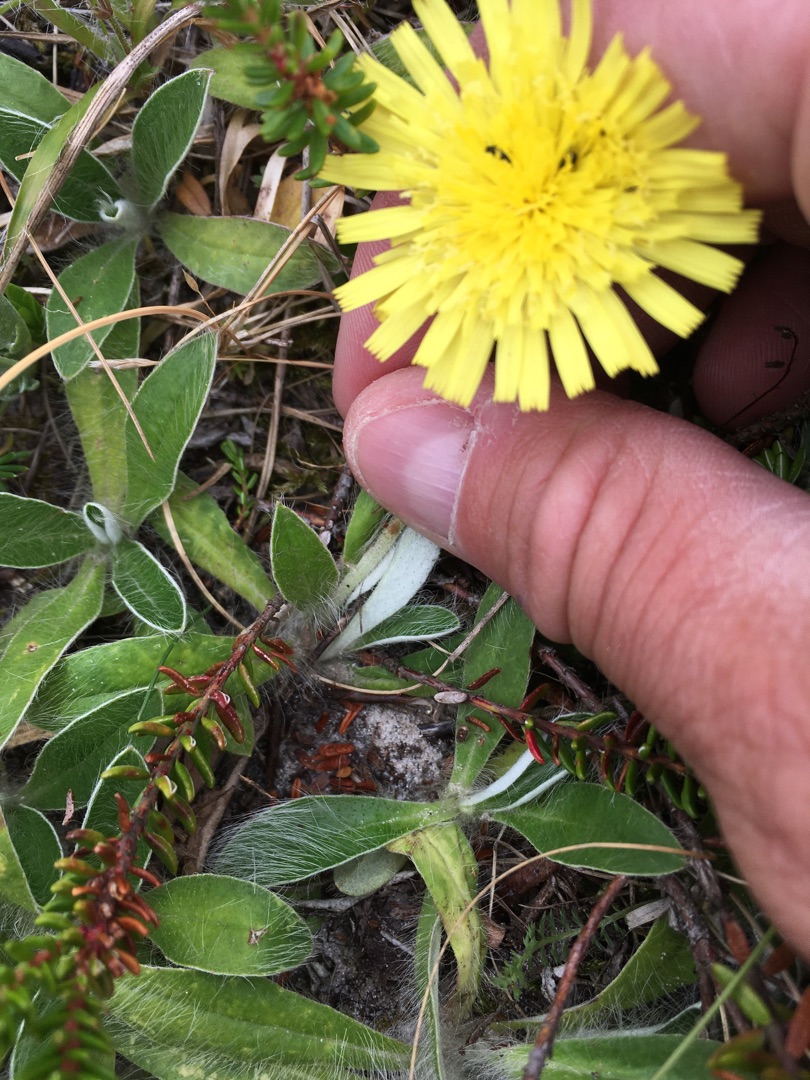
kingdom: Plantae
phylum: Tracheophyta
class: Magnoliopsida
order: Asterales
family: Asteraceae
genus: Pilosella
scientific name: Pilosella officinarum
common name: Håret høgeurt
